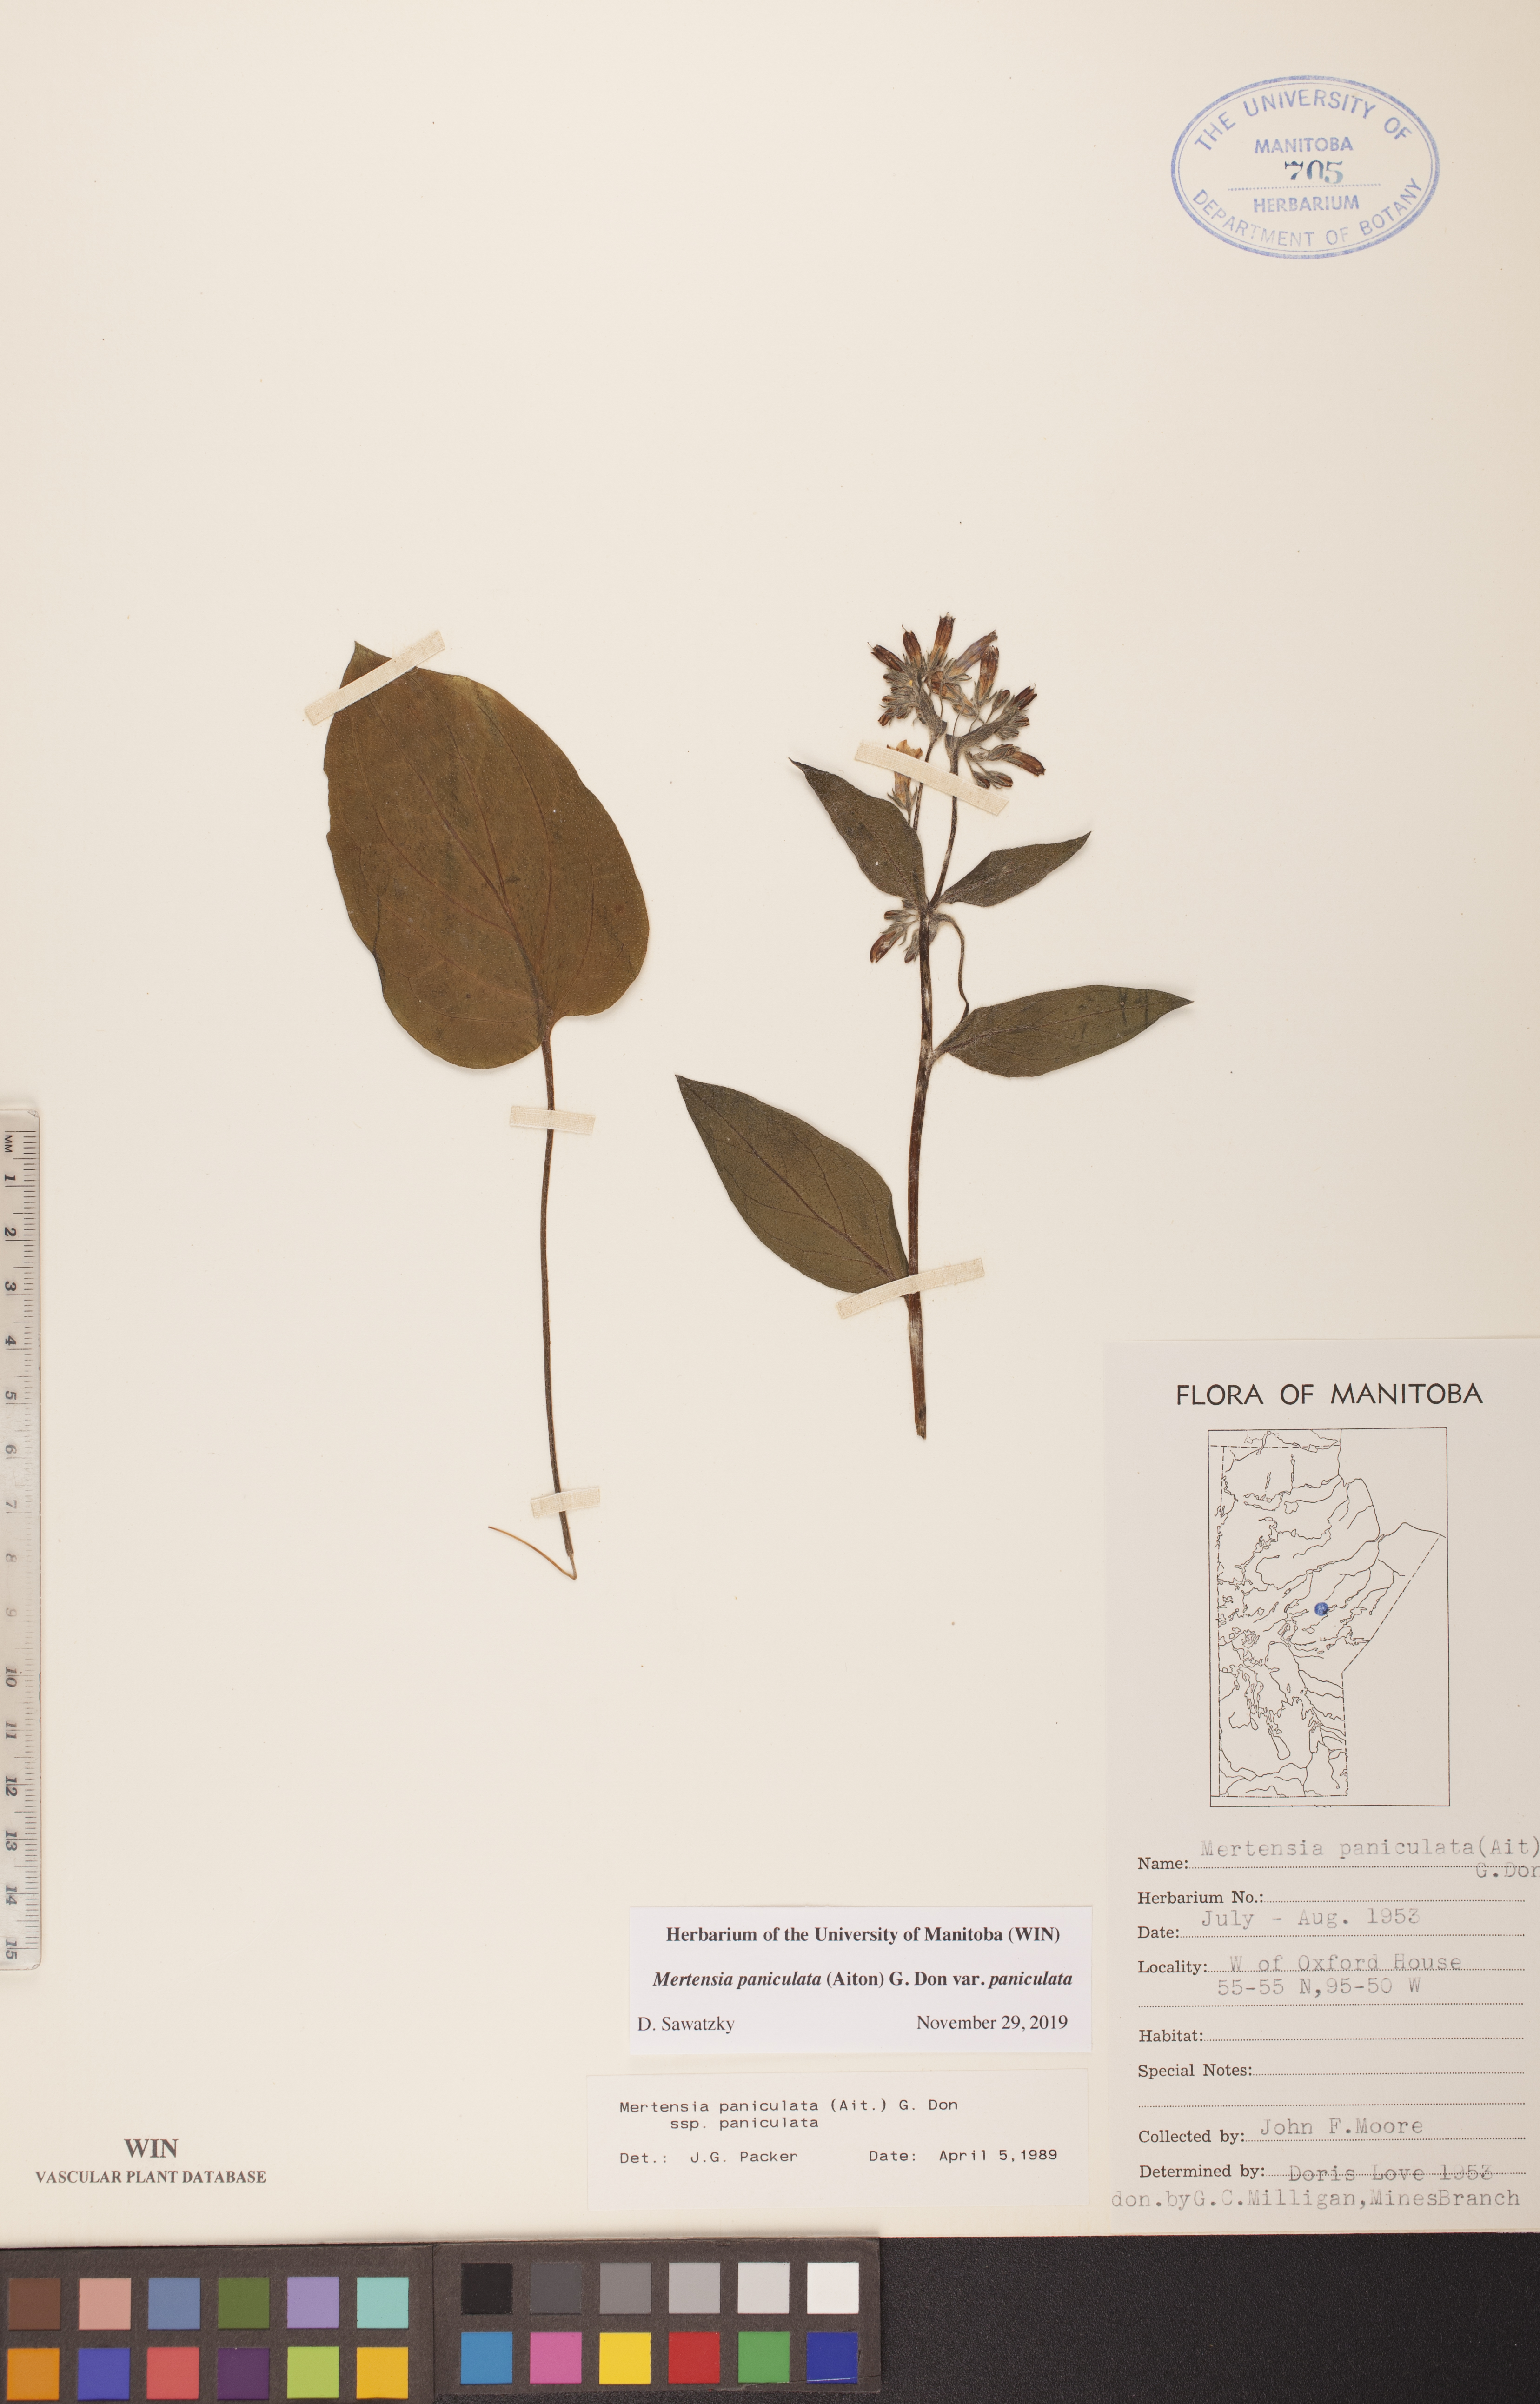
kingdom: Plantae
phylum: Tracheophyta
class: Magnoliopsida
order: Boraginales
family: Boraginaceae
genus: Mertensia
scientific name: Mertensia paniculata
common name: Panicled bluebells
